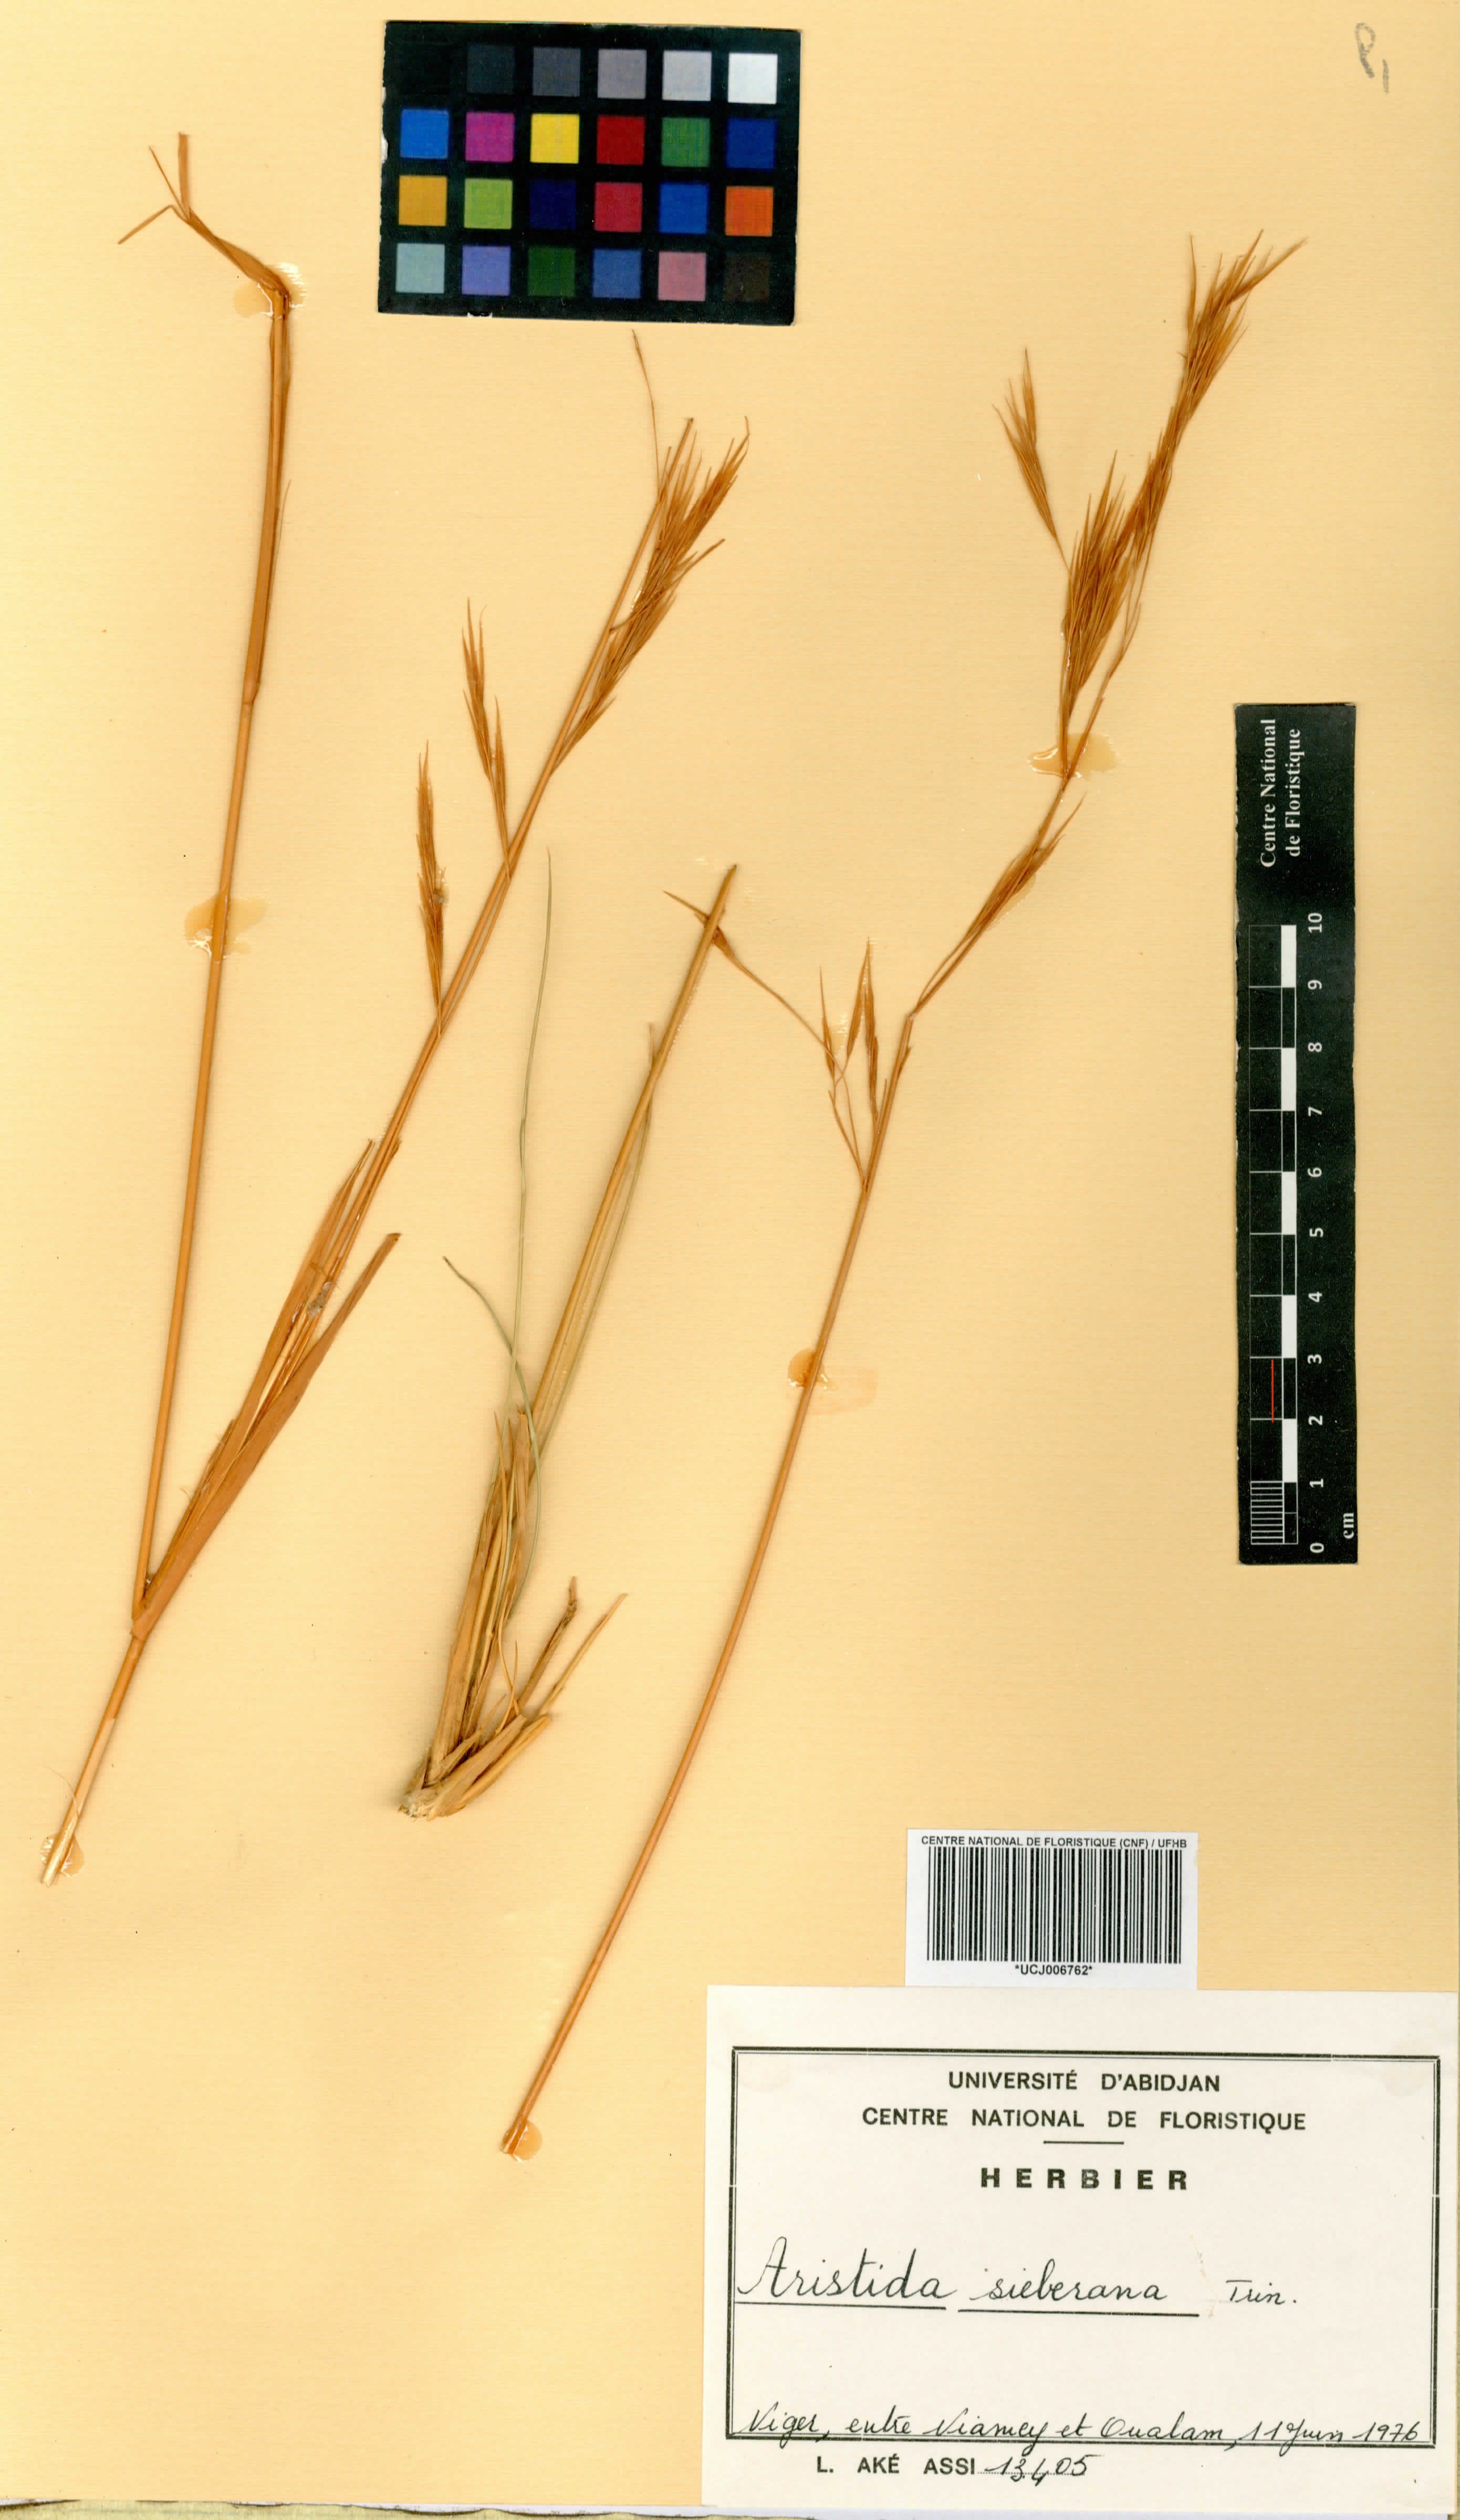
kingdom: Plantae
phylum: Tracheophyta
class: Liliopsida
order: Poales
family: Poaceae
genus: Aristida
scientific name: Aristida sieberiana
